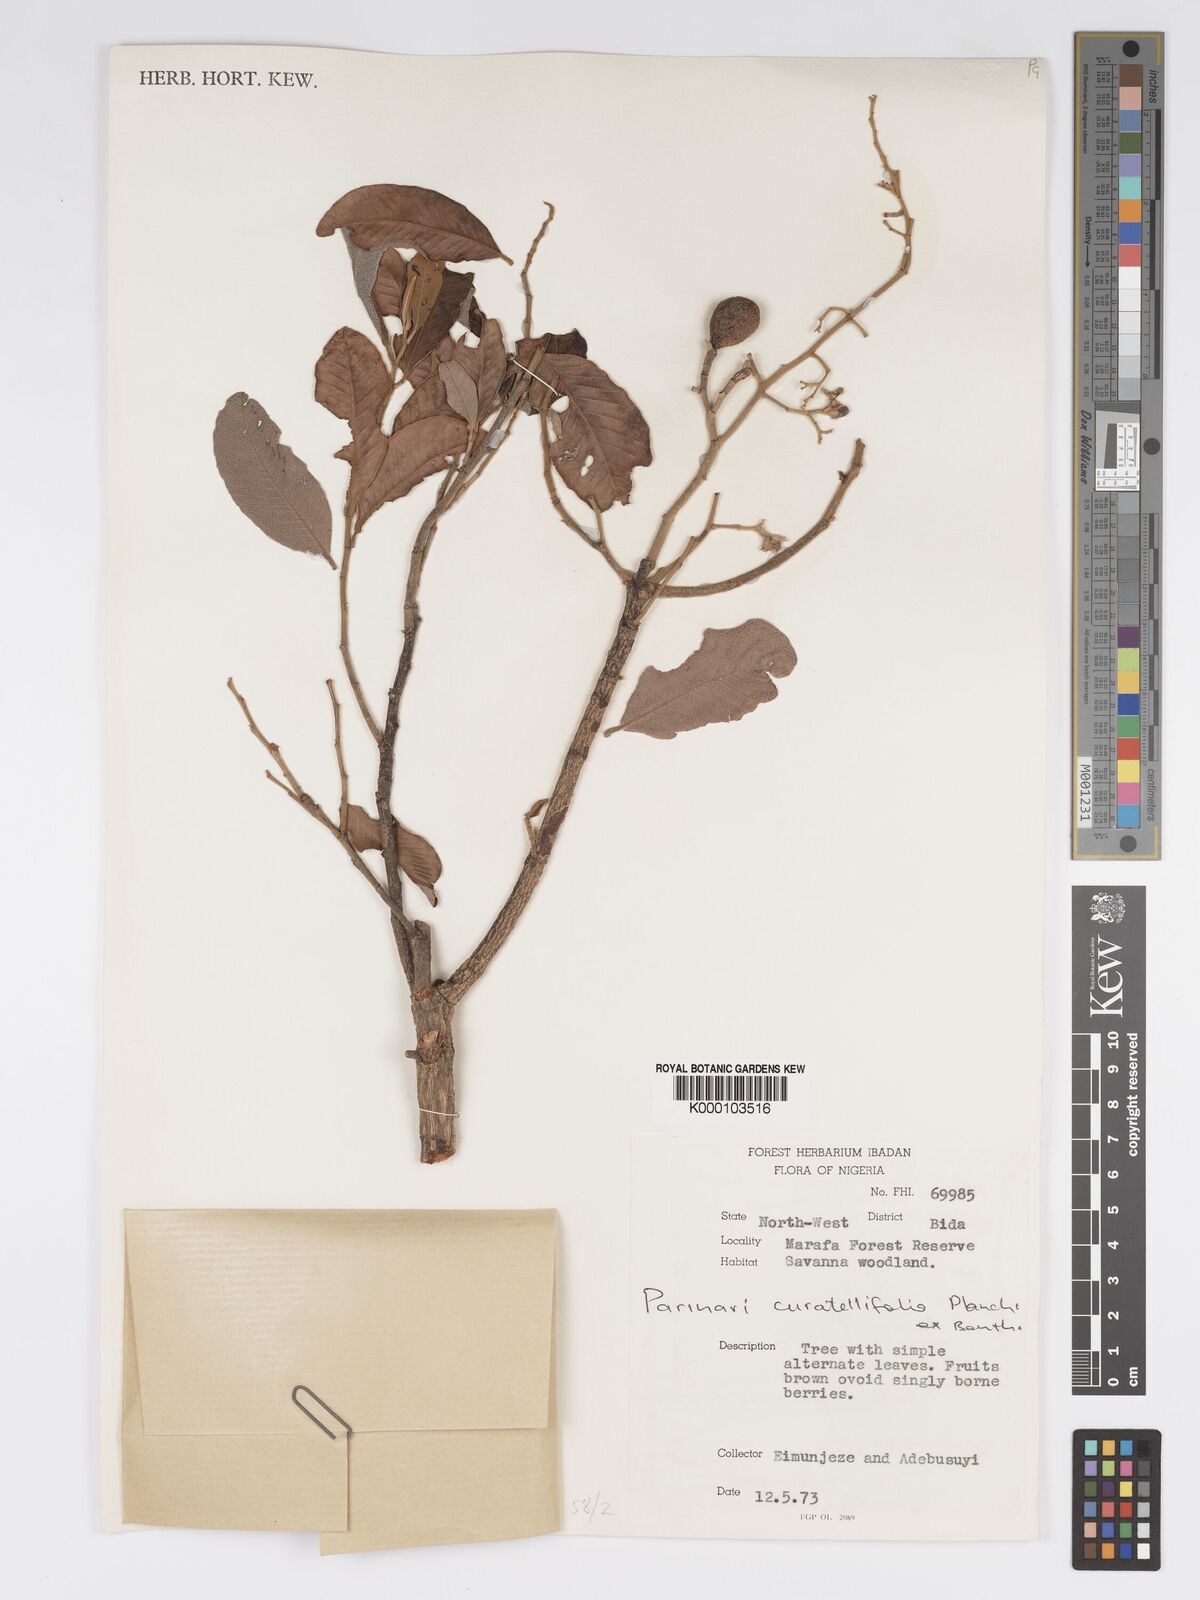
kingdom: Plantae
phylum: Tracheophyta
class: Magnoliopsida
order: Malpighiales
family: Chrysobalanaceae
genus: Parinari
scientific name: Parinari curatellifolia
